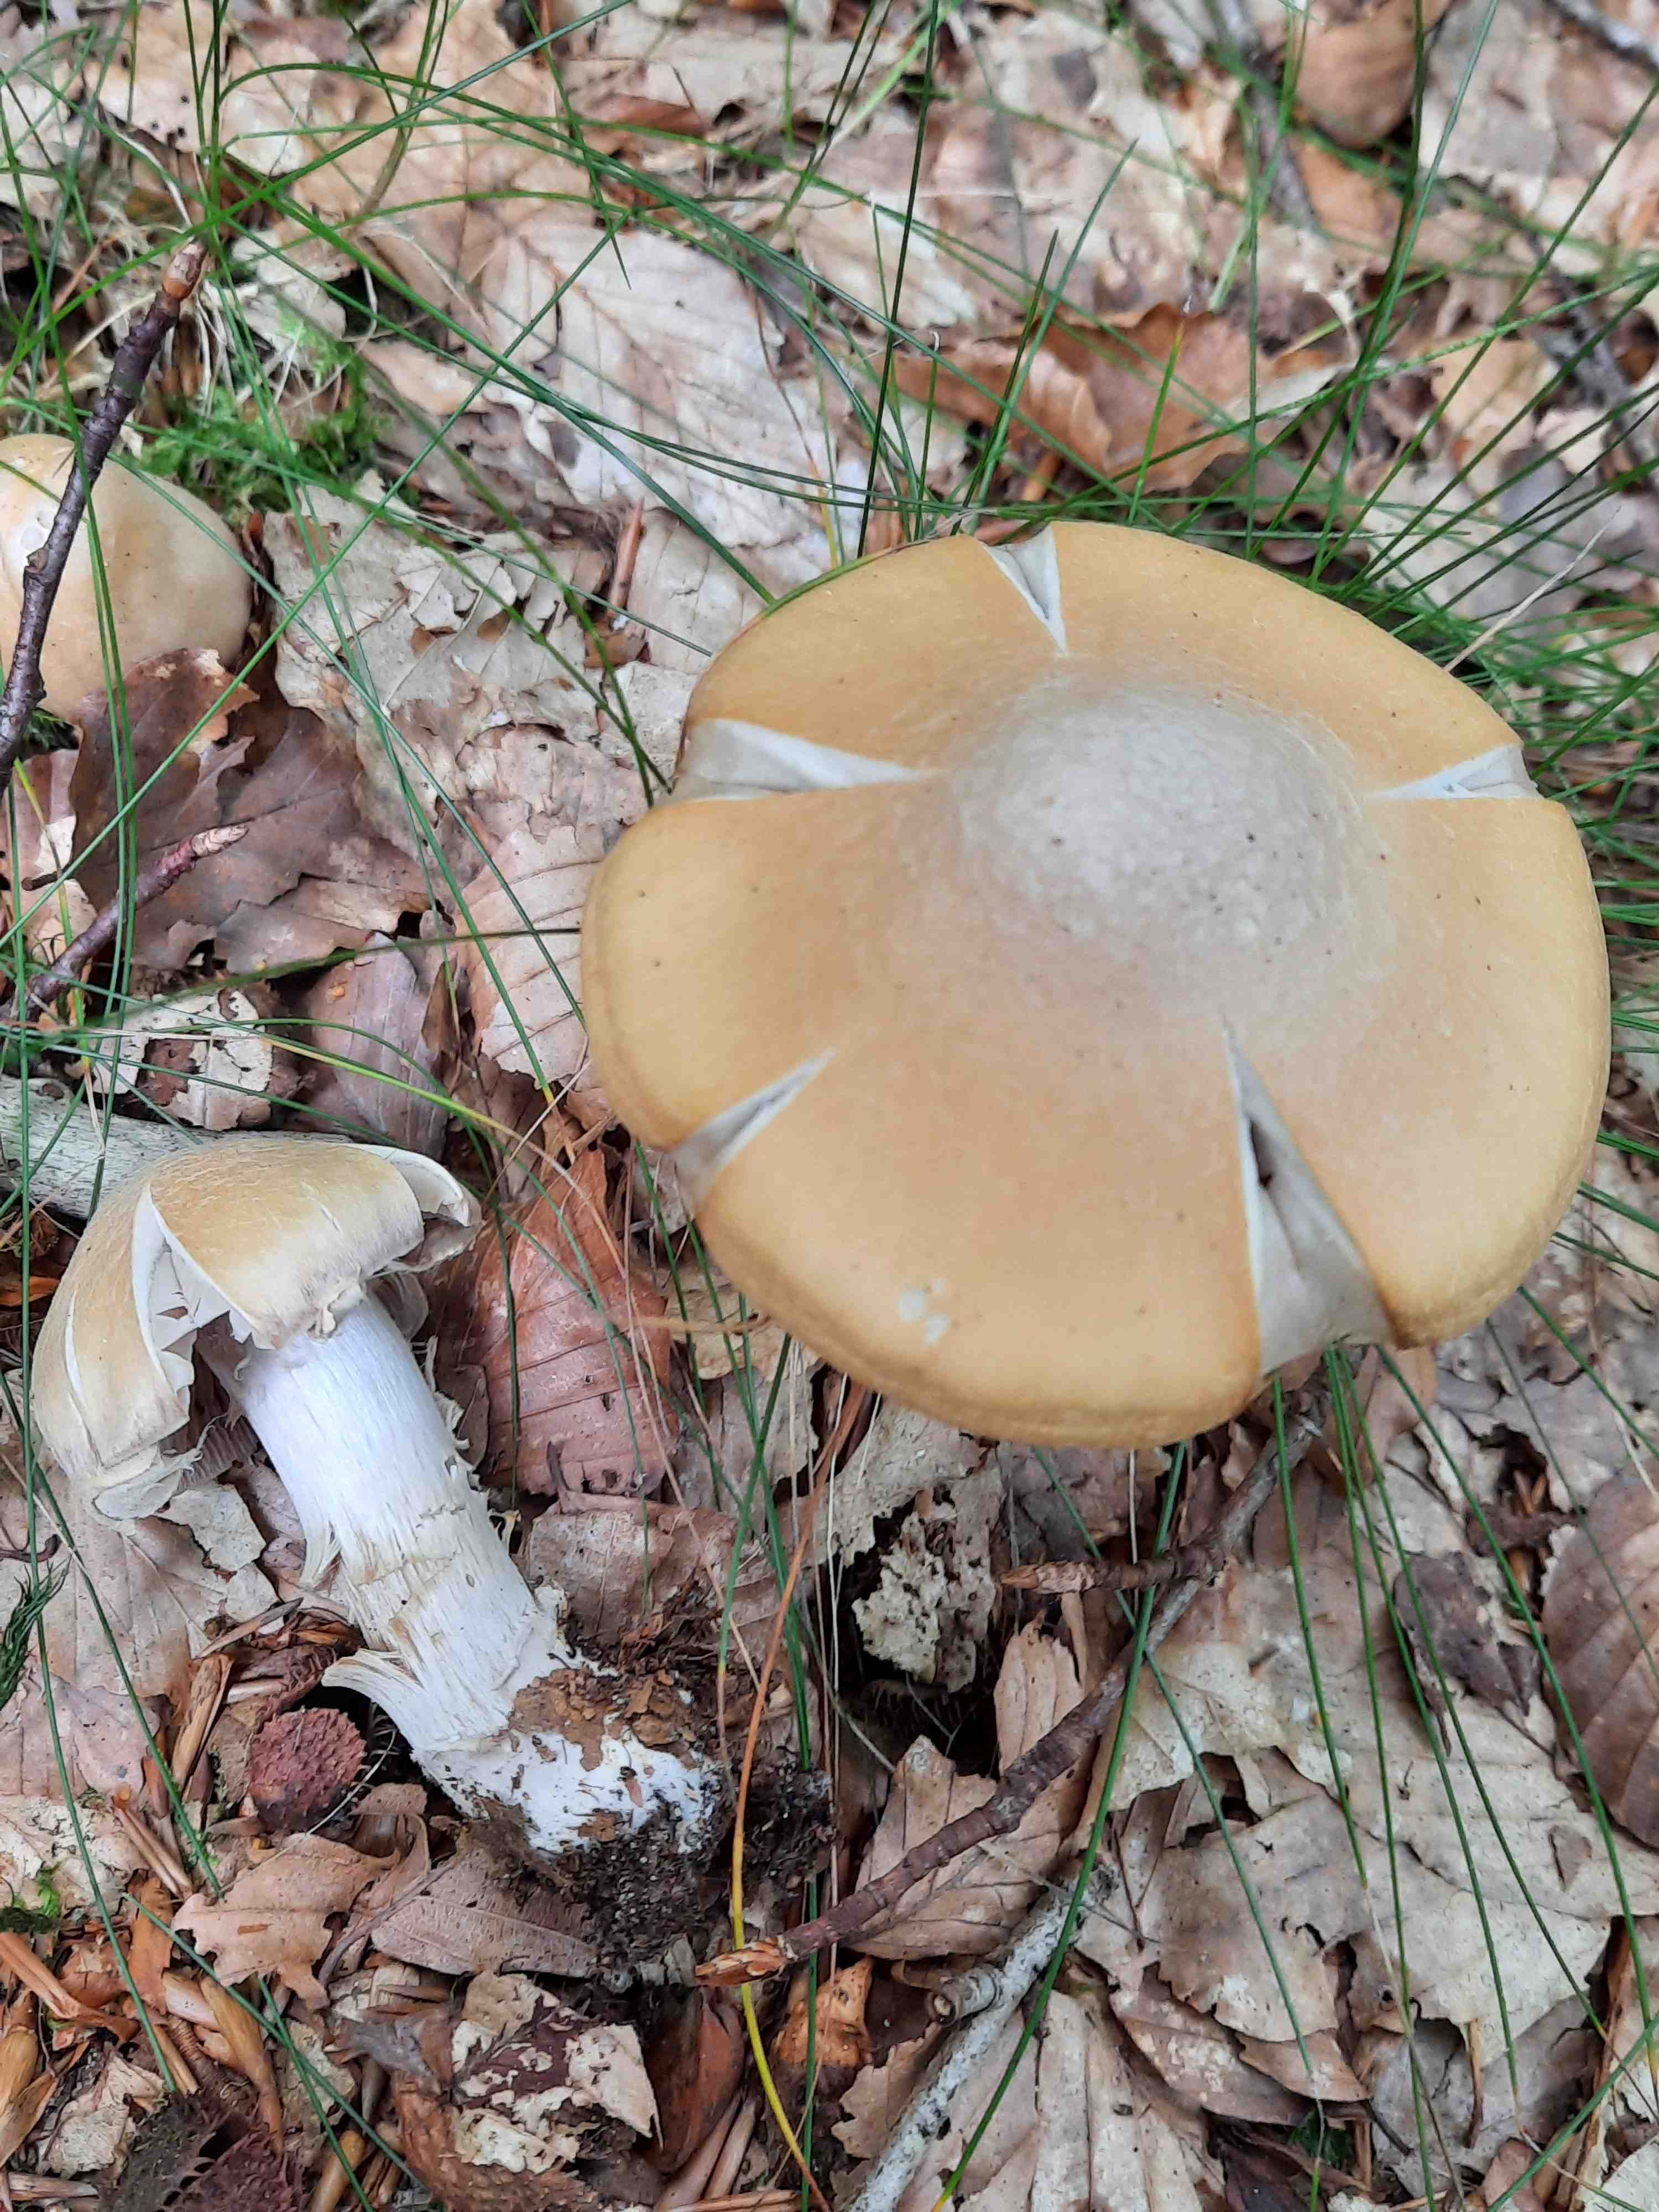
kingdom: Fungi
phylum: Basidiomycota
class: Agaricomycetes
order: Agaricales
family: Cortinariaceae
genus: Cortinarius
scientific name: Cortinarius caperatus
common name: klidhat
